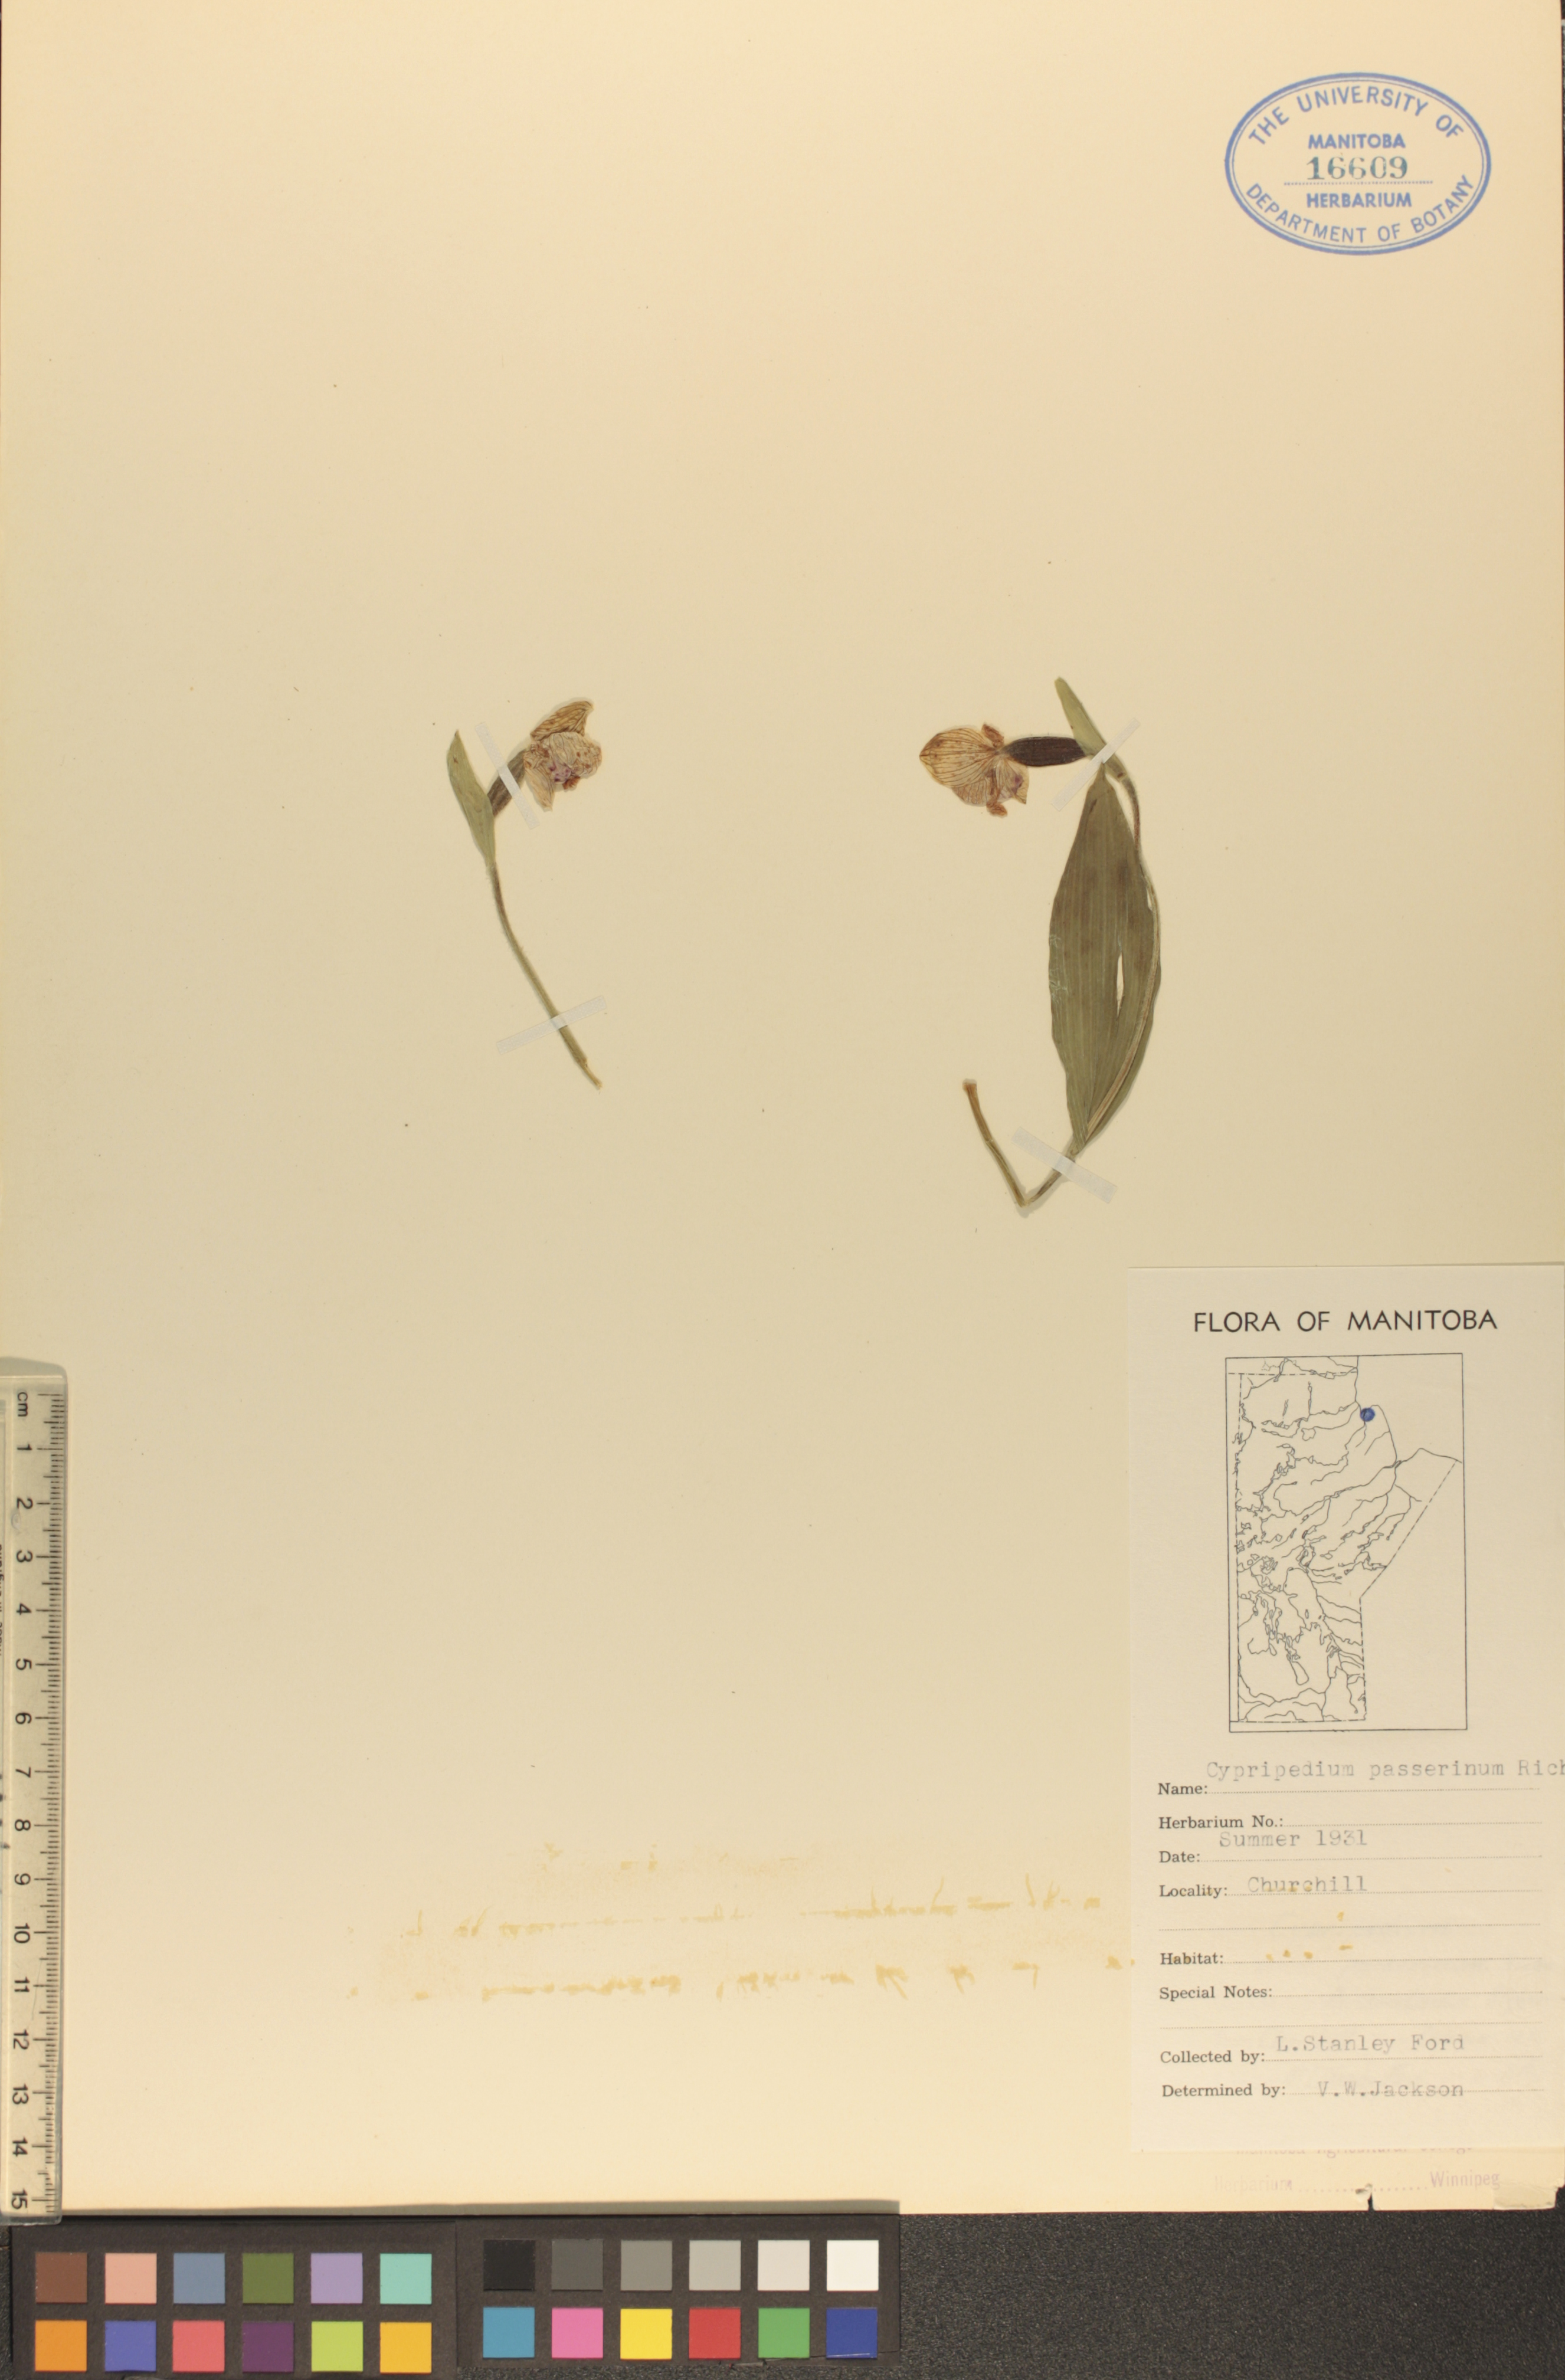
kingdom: Plantae
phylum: Tracheophyta
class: Liliopsida
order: Asparagales
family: Orchidaceae
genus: Cypripedium
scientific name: Cypripedium passerinum
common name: Sparrow's-egg lady's-slipper
